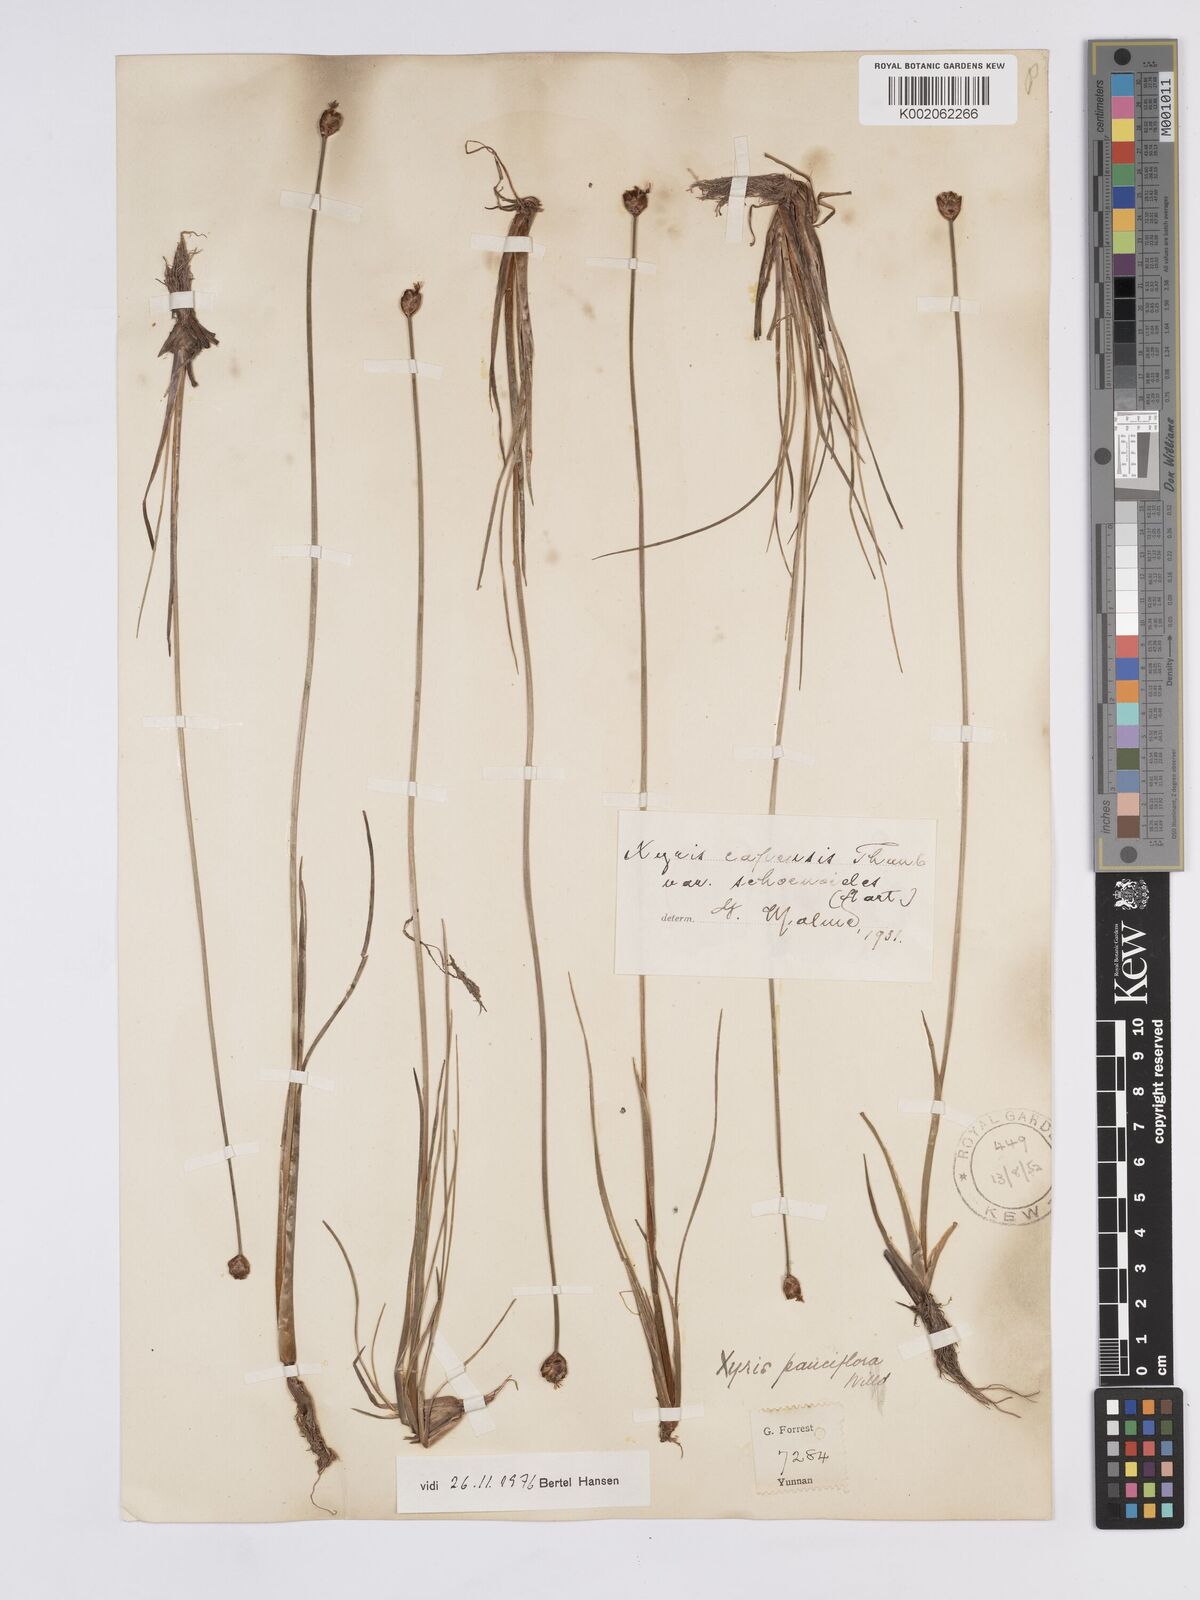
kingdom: Plantae
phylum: Tracheophyta
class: Liliopsida
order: Poales
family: Xyridaceae
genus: Xyris
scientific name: Xyris capensis
